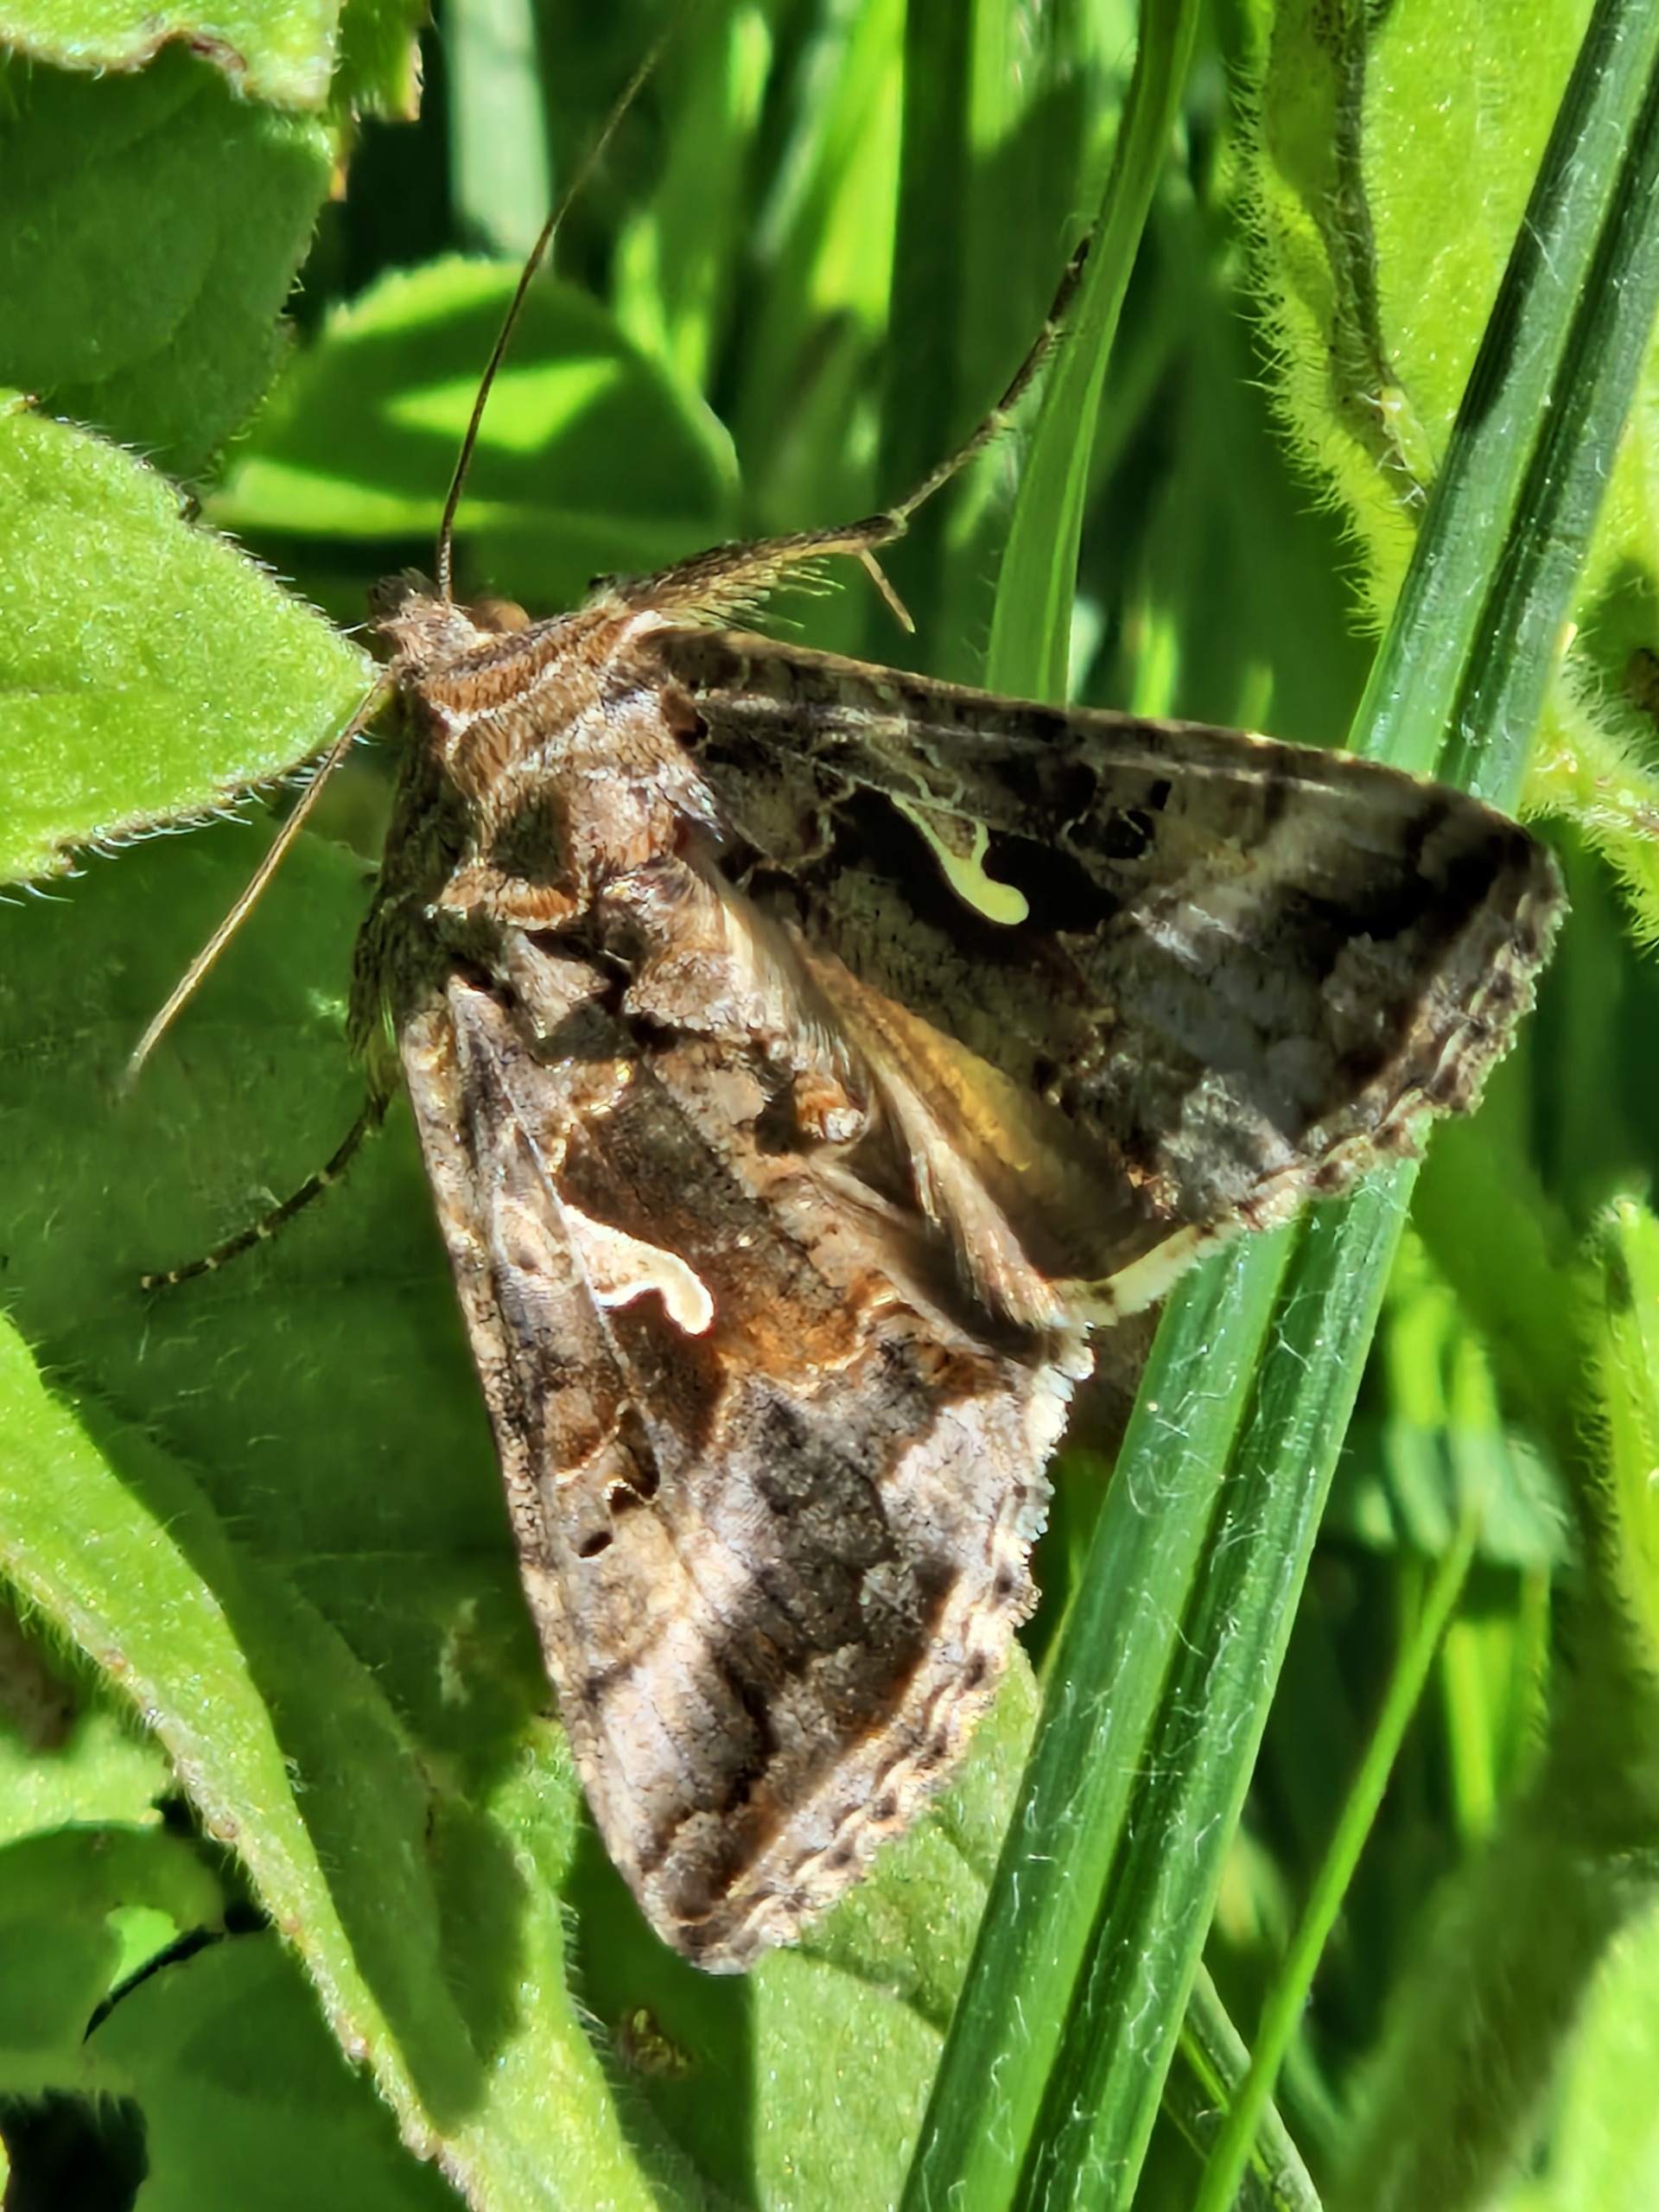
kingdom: Animalia
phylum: Arthropoda
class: Insecta
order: Lepidoptera
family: Noctuidae
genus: Autographa
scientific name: Autographa gamma
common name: Gammaugle
